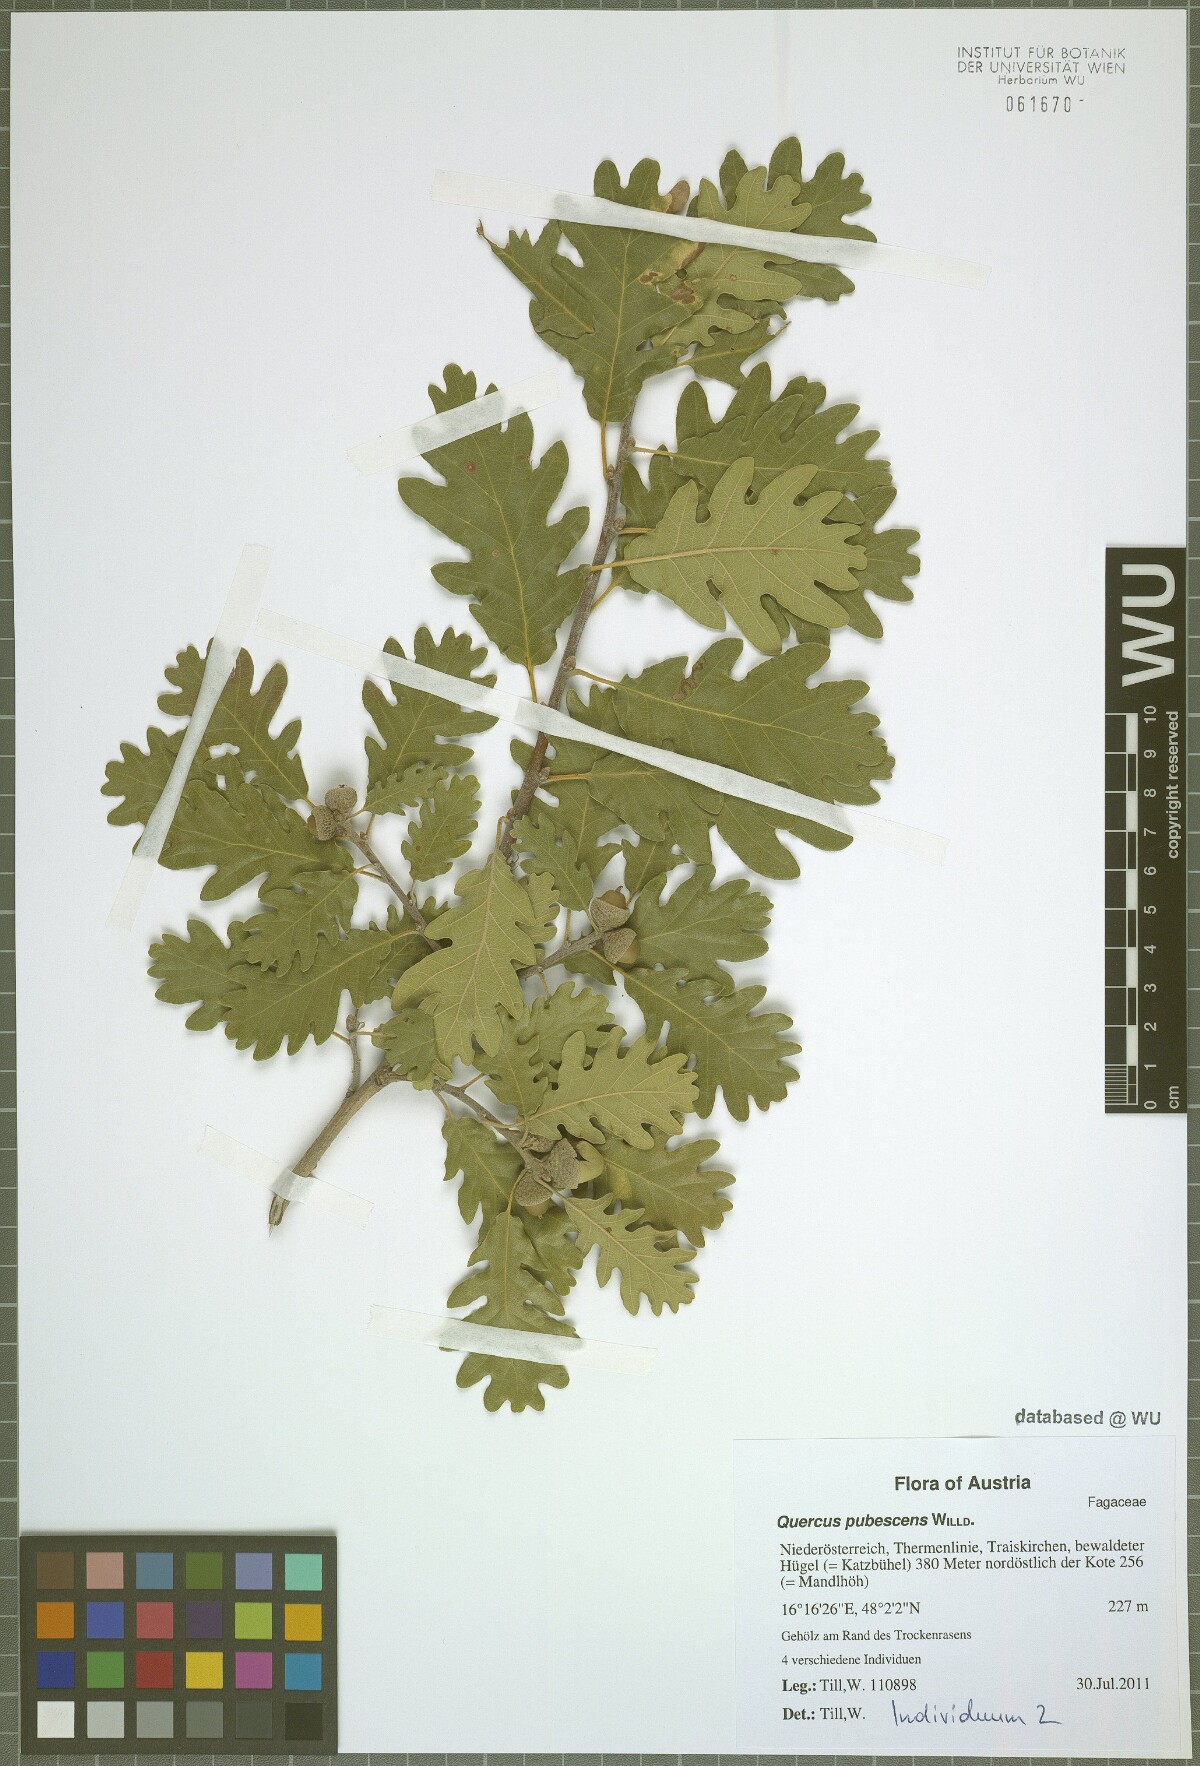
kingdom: Plantae
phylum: Tracheophyta
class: Magnoliopsida
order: Fagales
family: Fagaceae
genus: Quercus
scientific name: Quercus pubescens
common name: Downy oak
